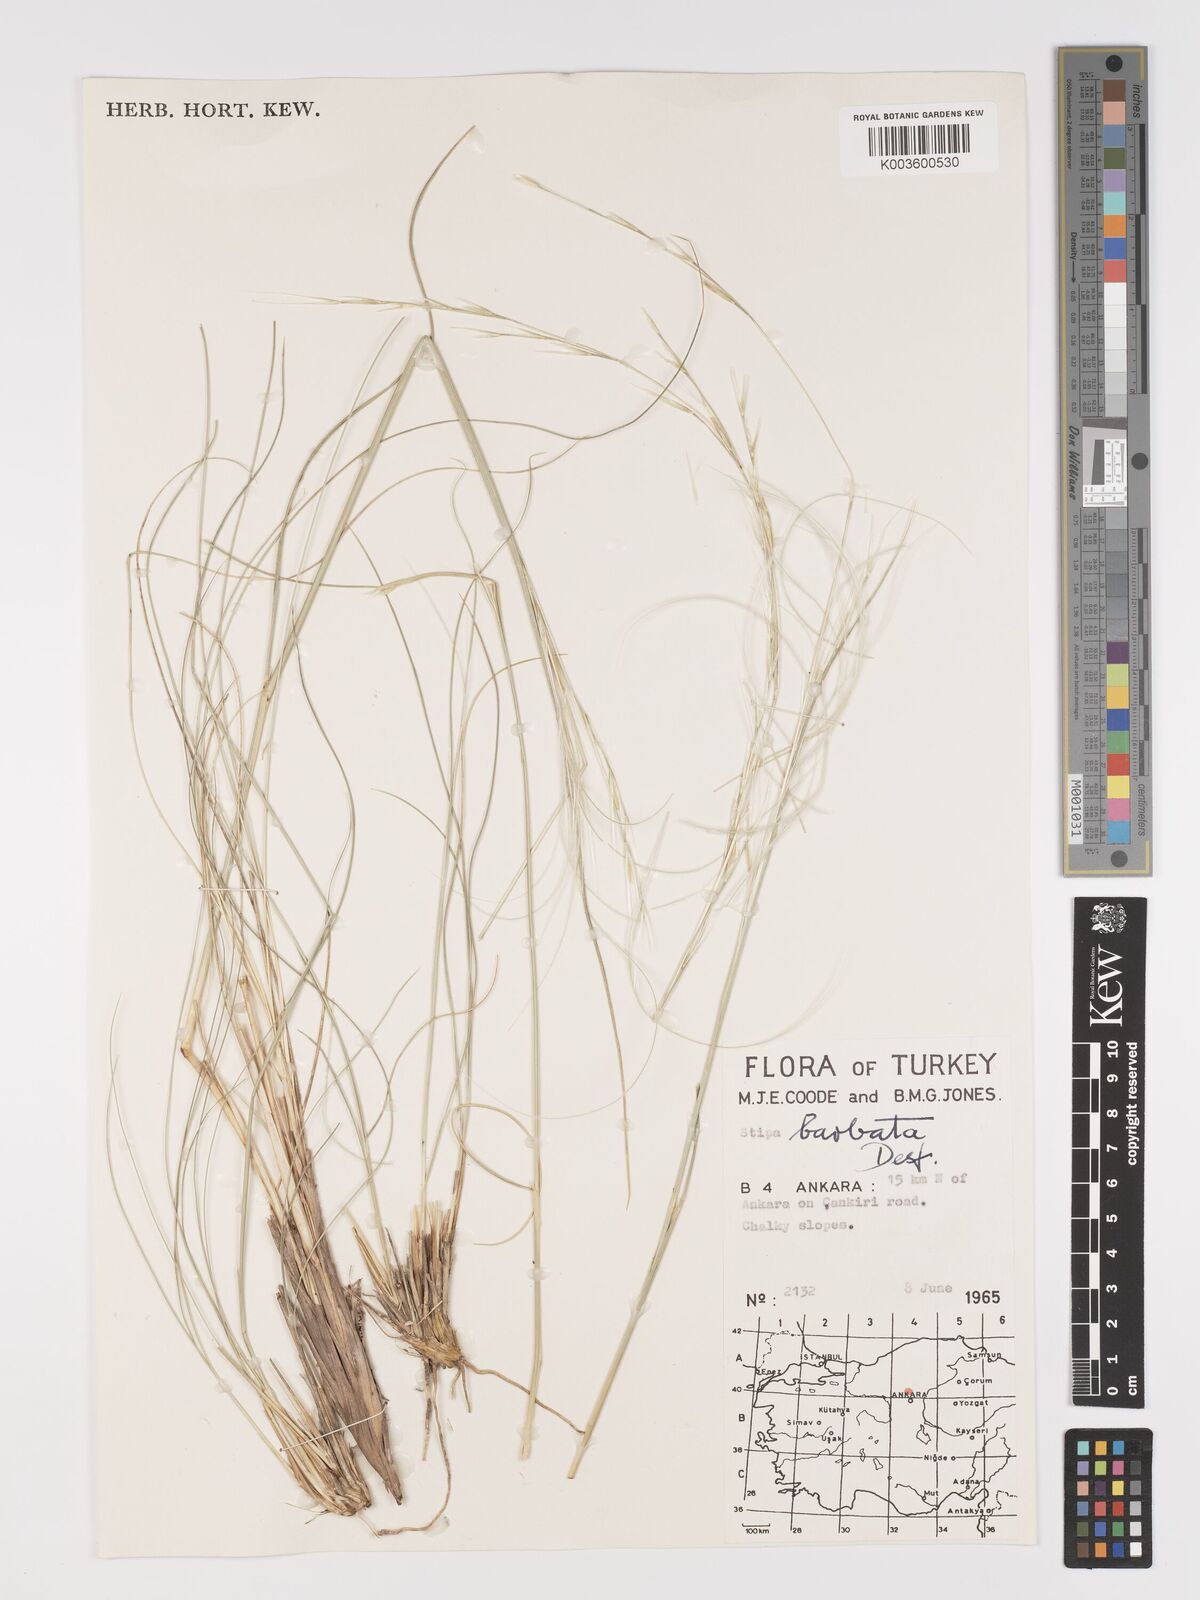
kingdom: Plantae
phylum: Tracheophyta
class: Liliopsida
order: Poales
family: Poaceae
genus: Stipa
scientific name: Stipa barbata
